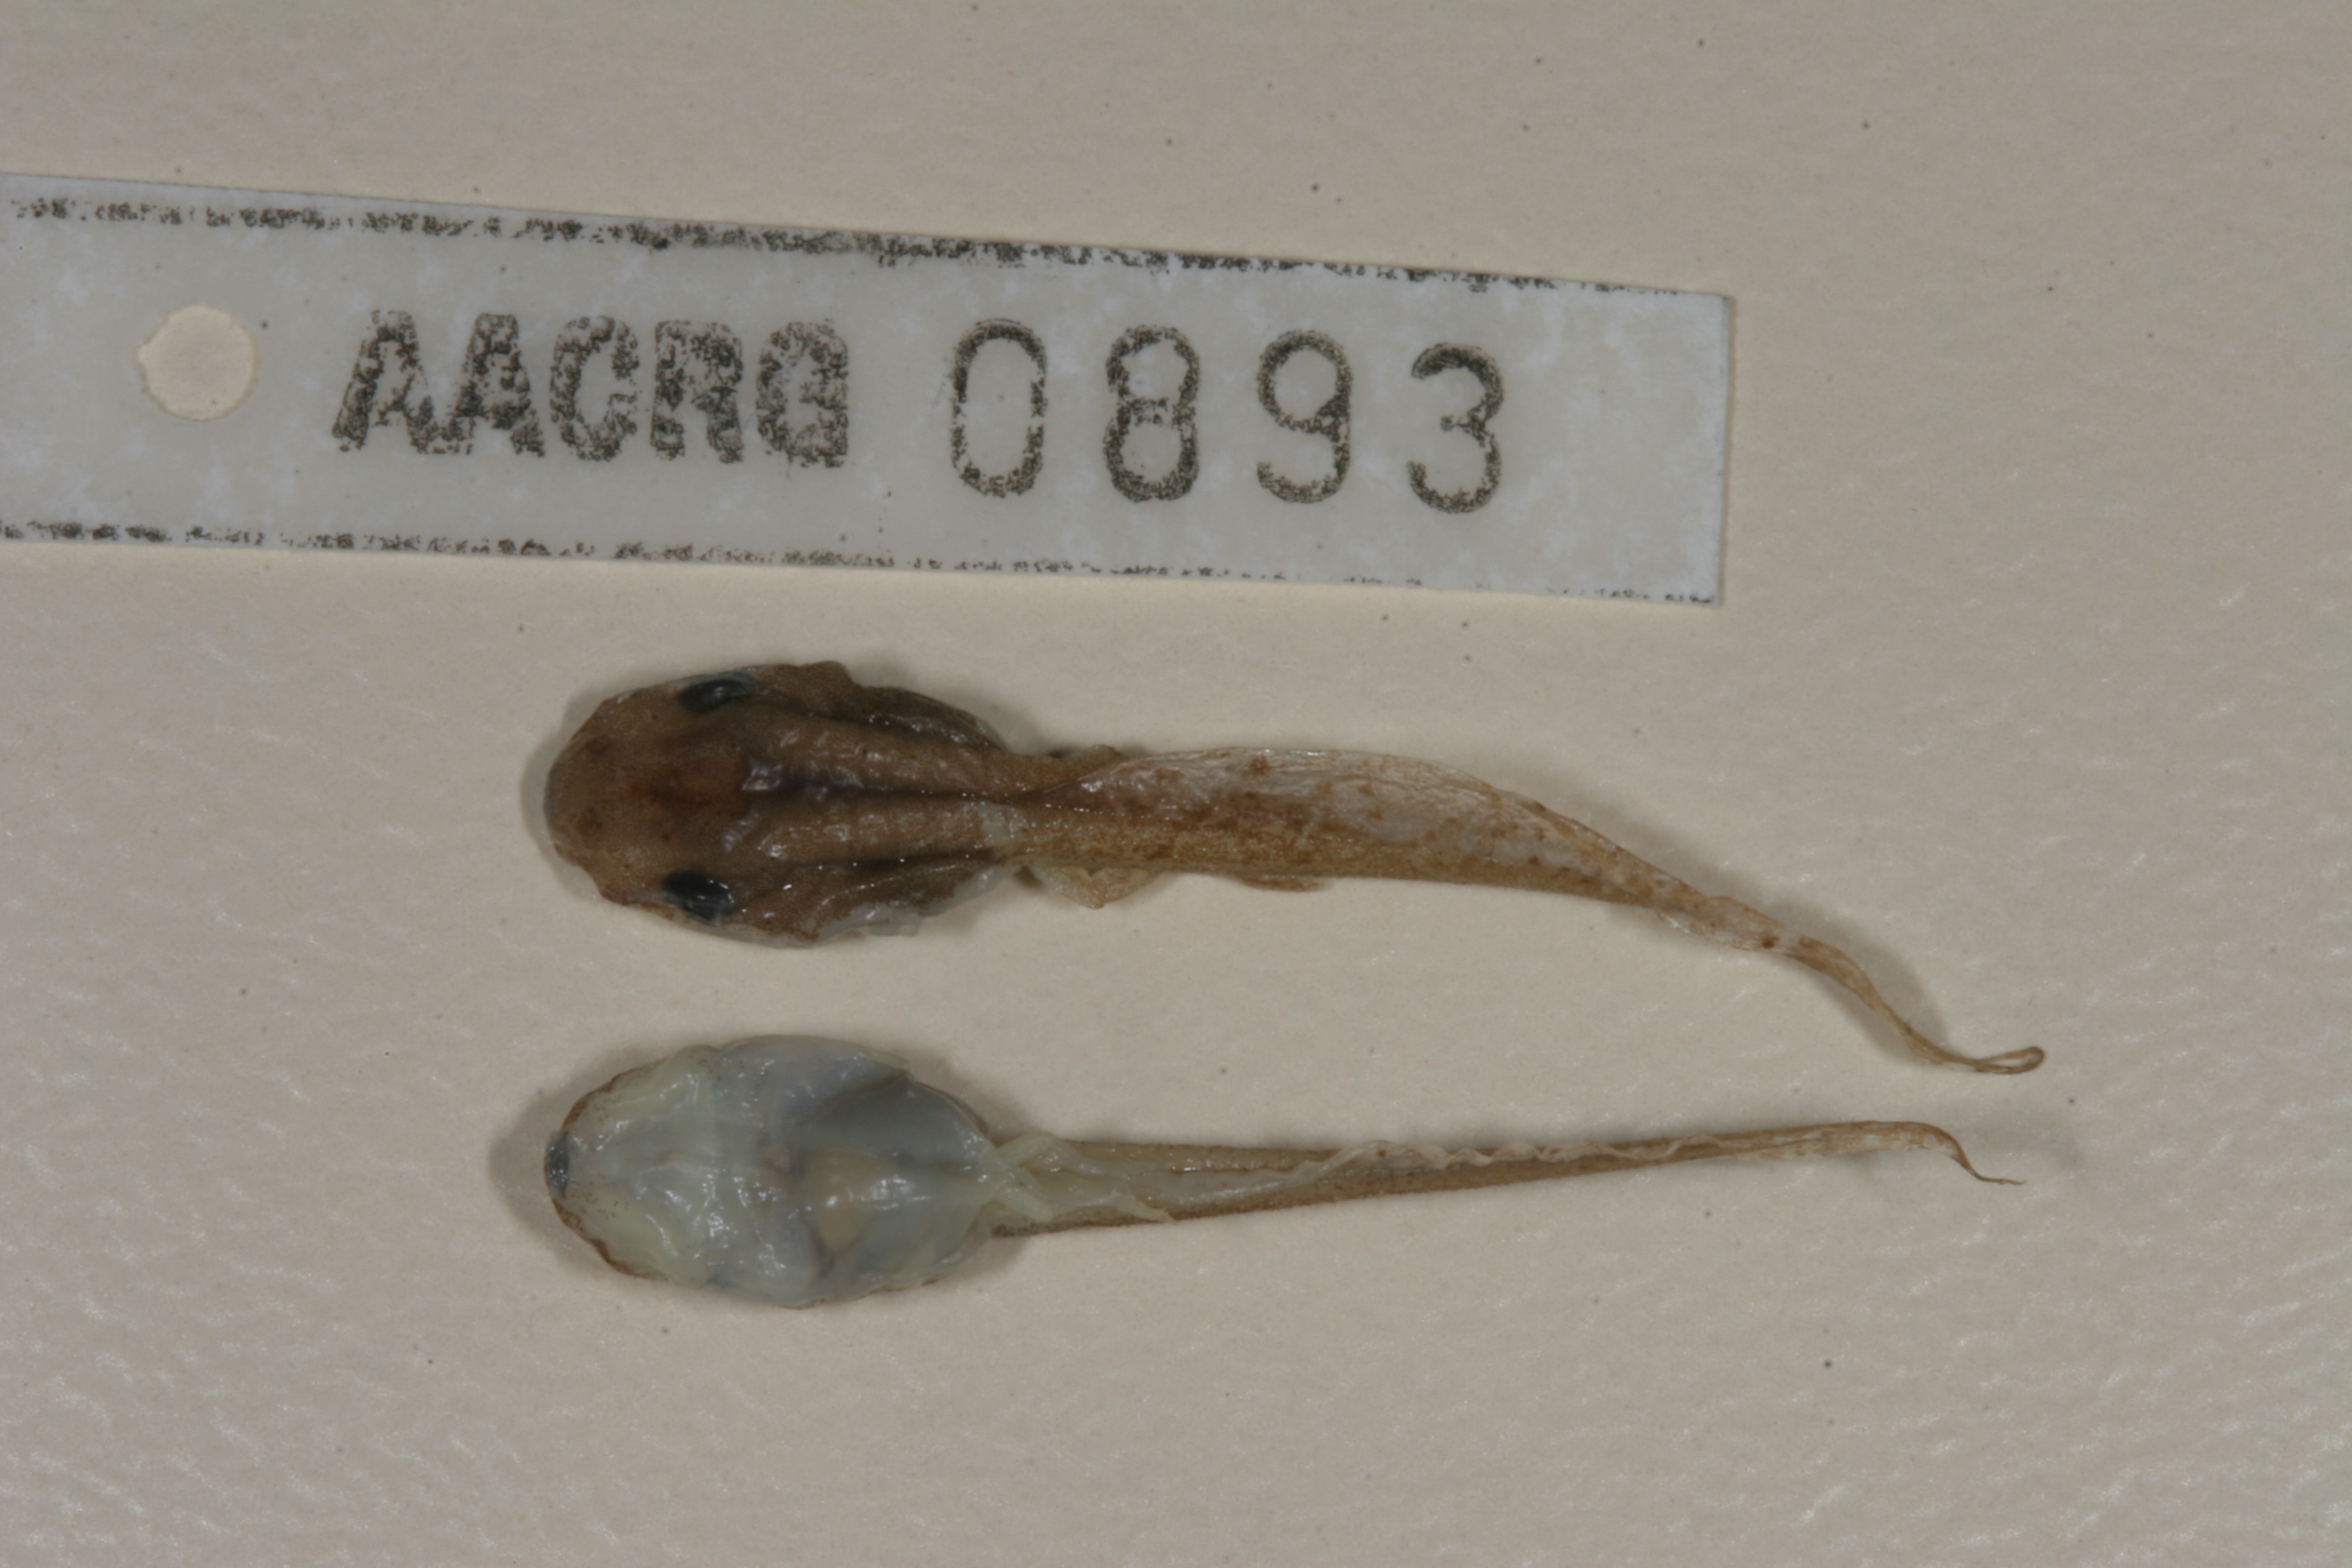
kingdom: Animalia
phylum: Chordata
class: Amphibia
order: Anura
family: Hyperoliidae
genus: Afrixalus
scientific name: Afrixalus aureus
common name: Golden banana frog
